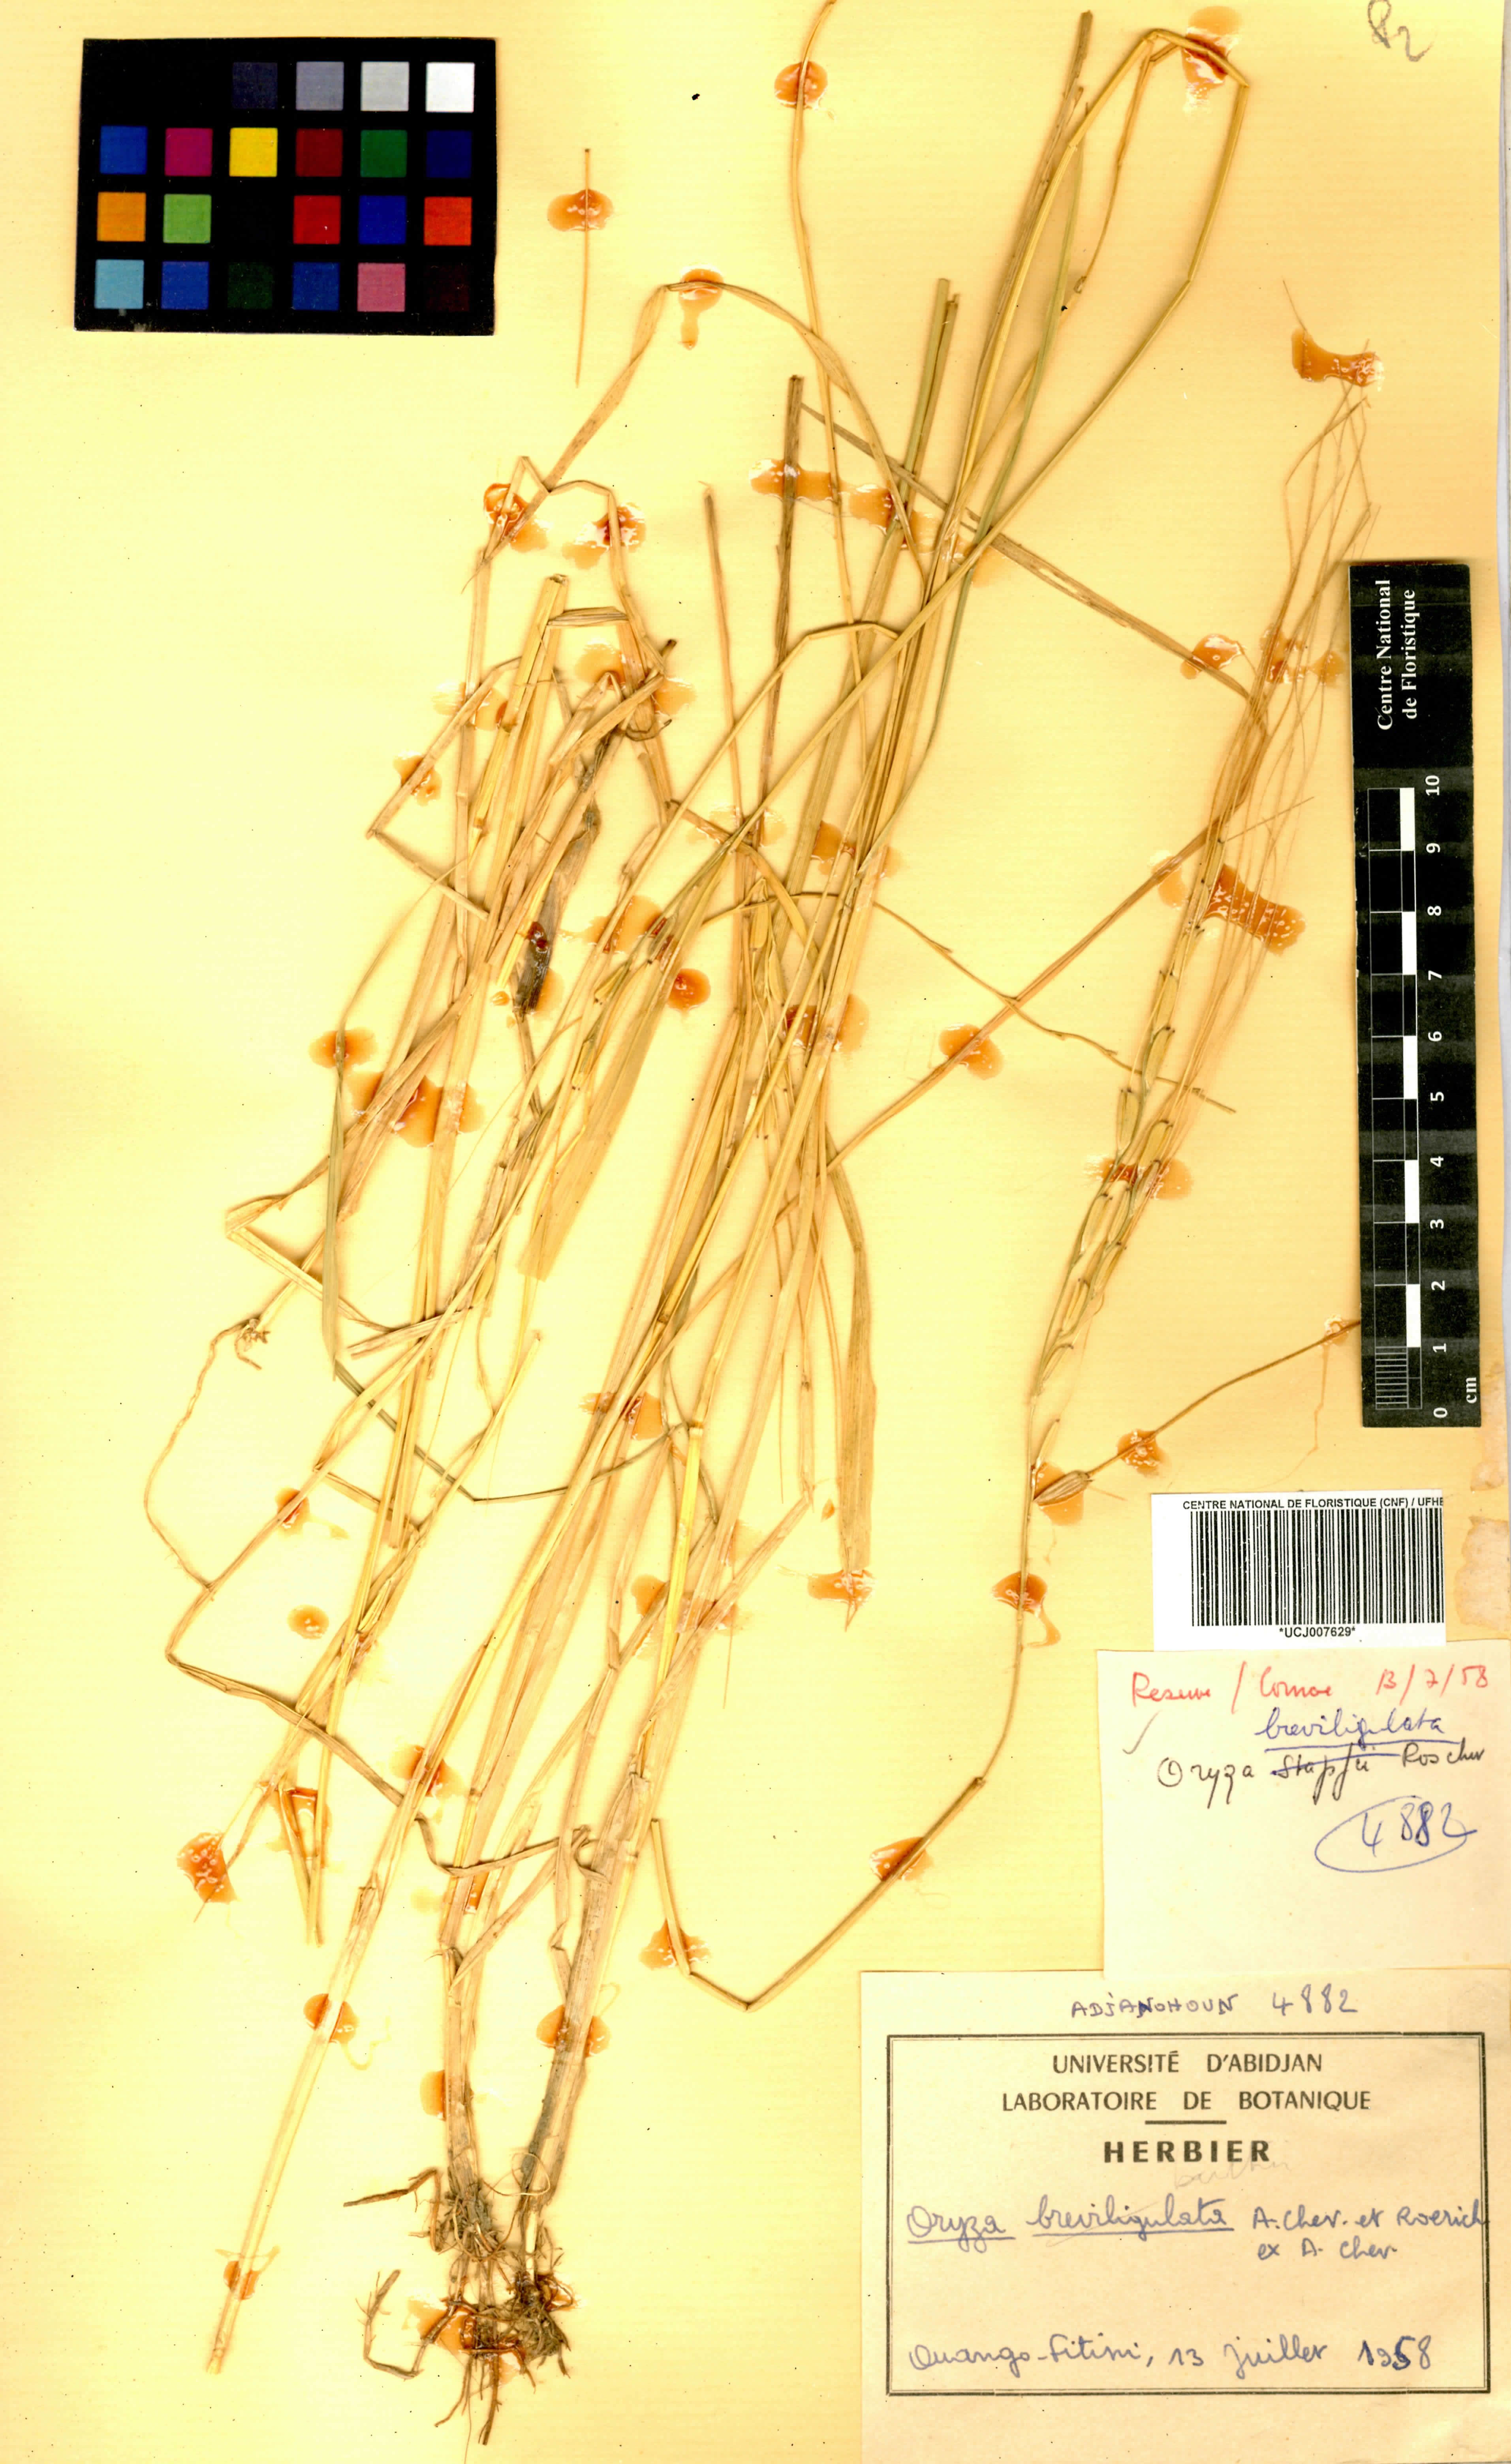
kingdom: Plantae
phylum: Tracheophyta
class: Liliopsida
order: Poales
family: Poaceae
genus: Oryza
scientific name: Oryza barthii
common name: Wild rice
